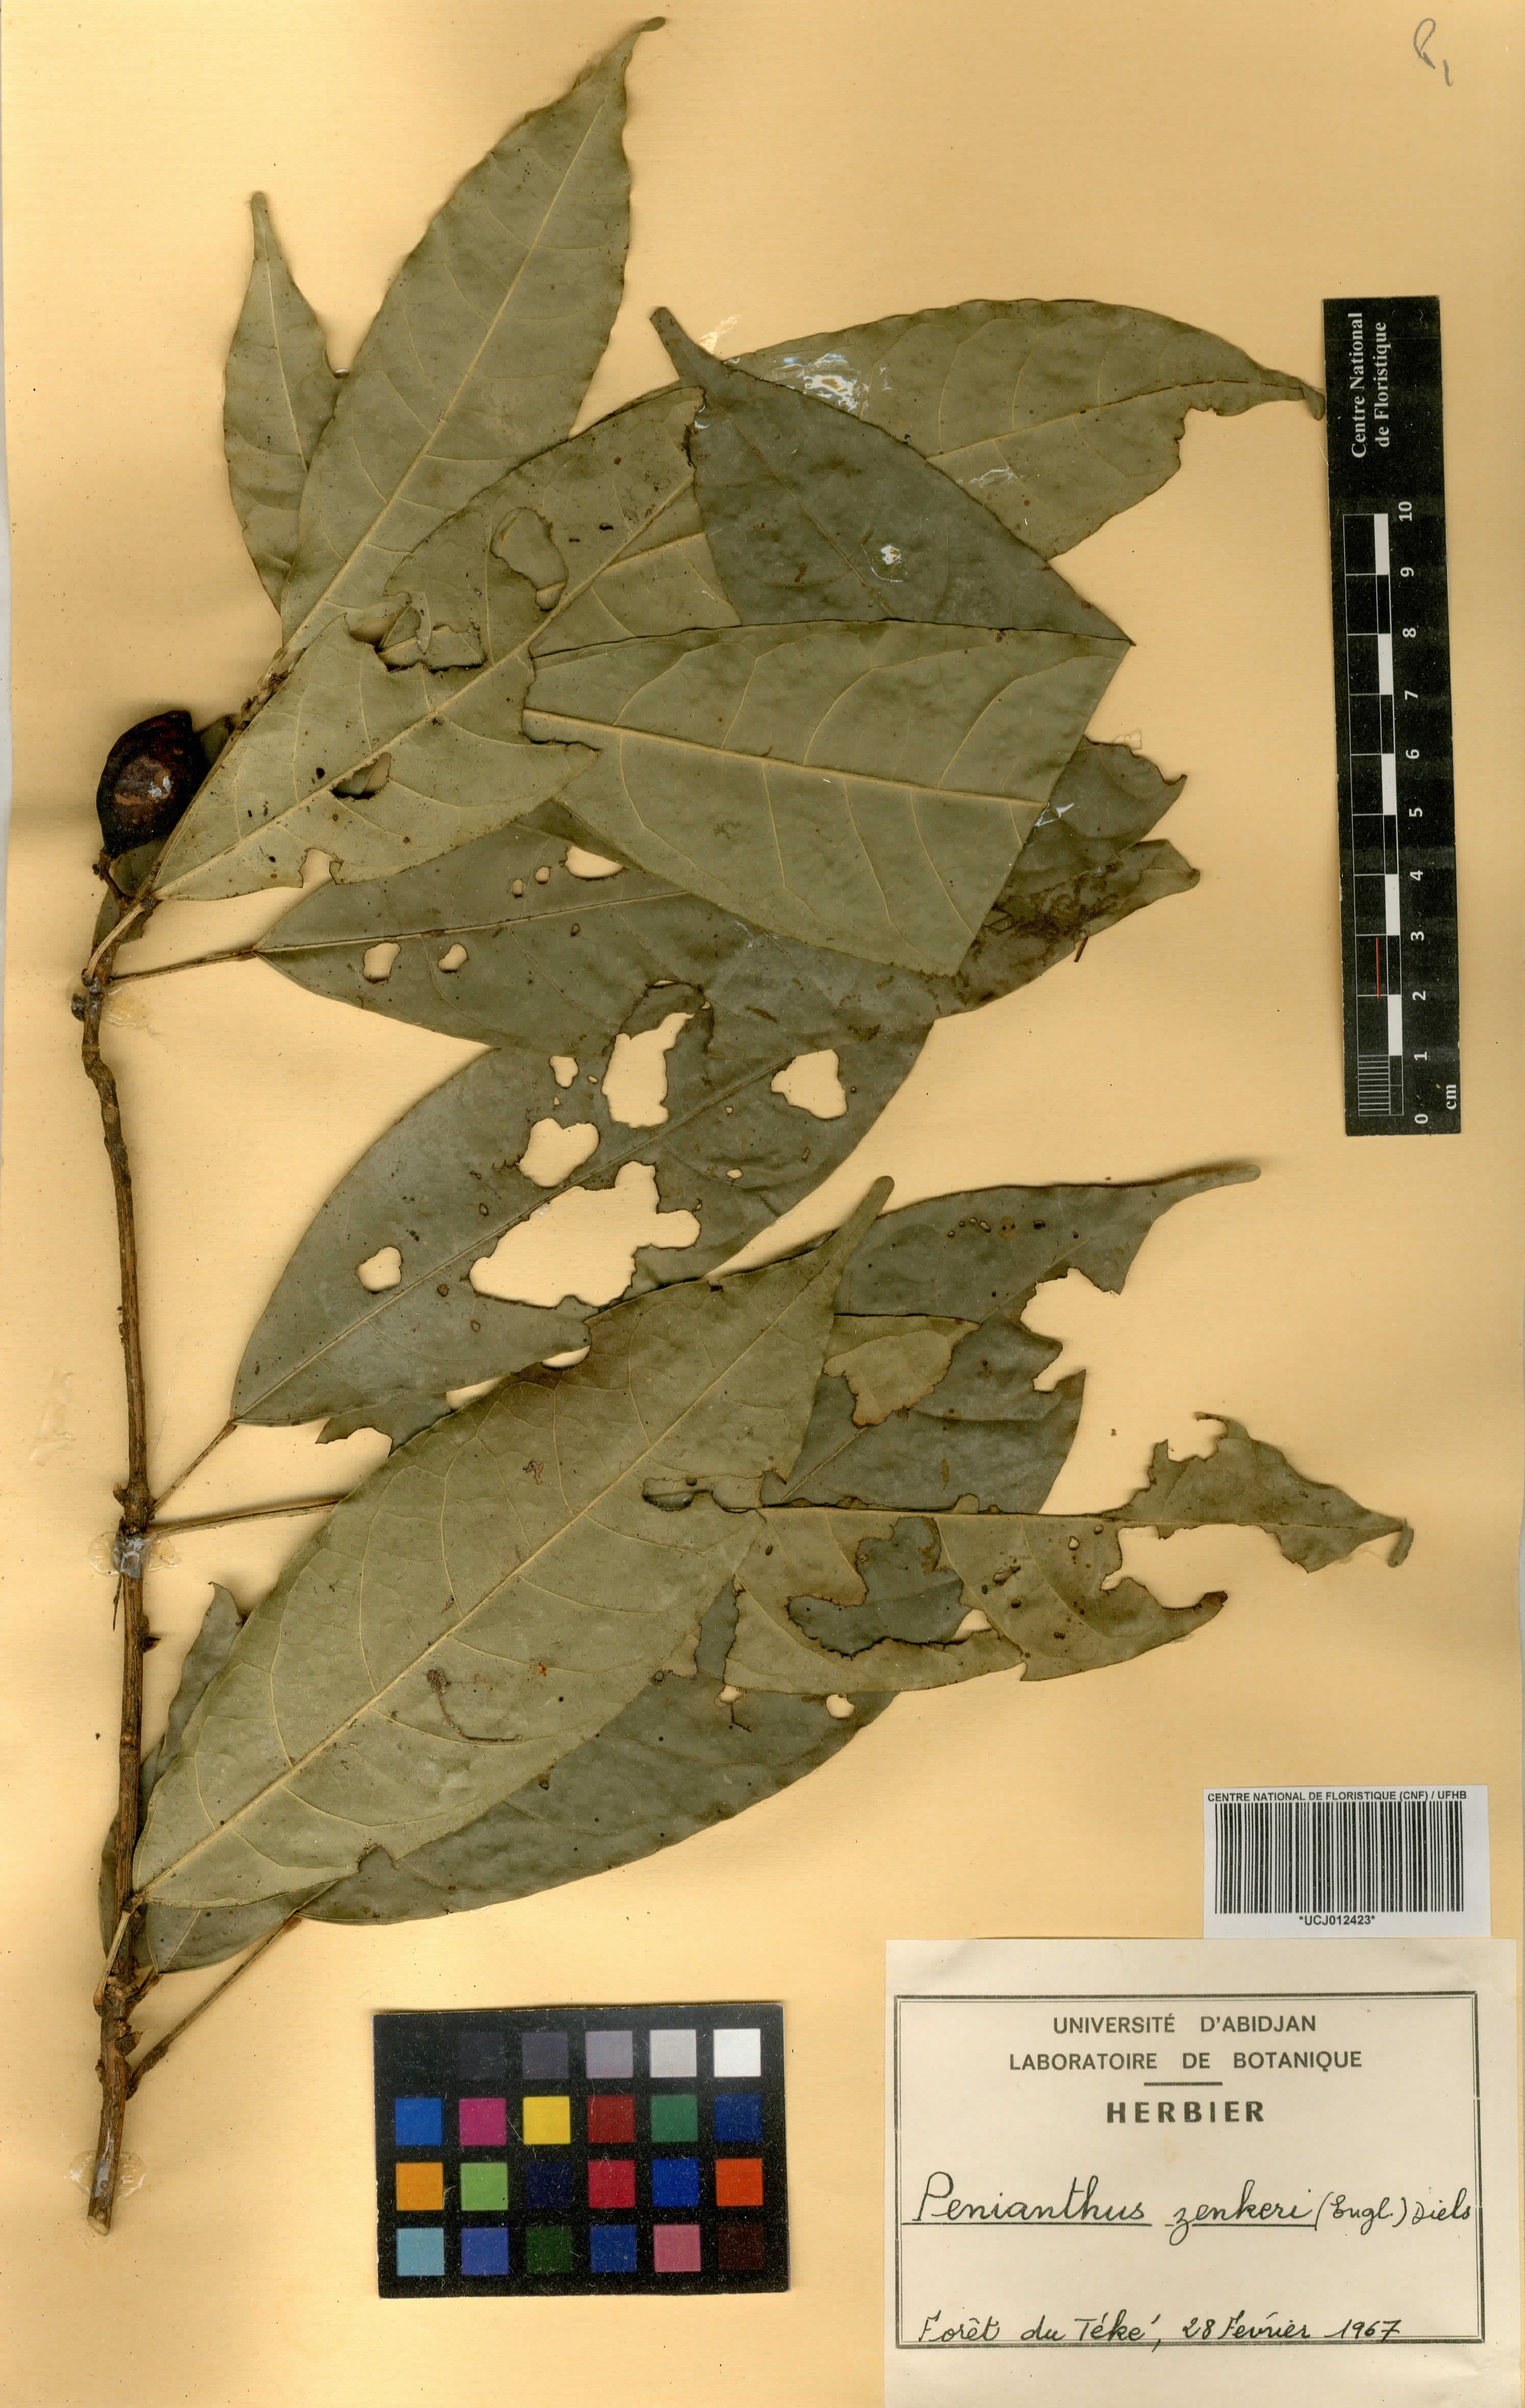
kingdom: Plantae
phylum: Tracheophyta
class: Magnoliopsida
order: Ranunculales
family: Menispermaceae
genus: Penianthus
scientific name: Penianthus zenkeri
